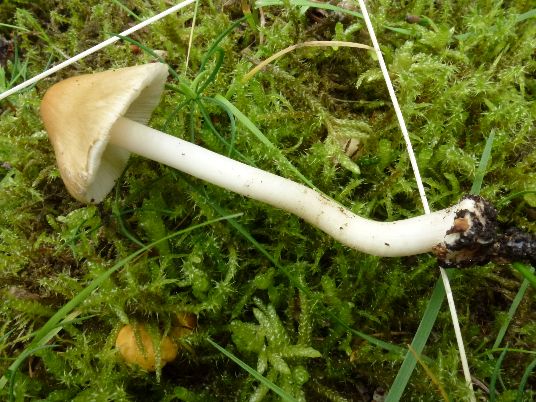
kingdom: Fungi
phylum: Basidiomycota
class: Agaricomycetes
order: Agaricales
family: Inocybaceae
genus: Inocybe
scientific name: Inocybe mixtilis
